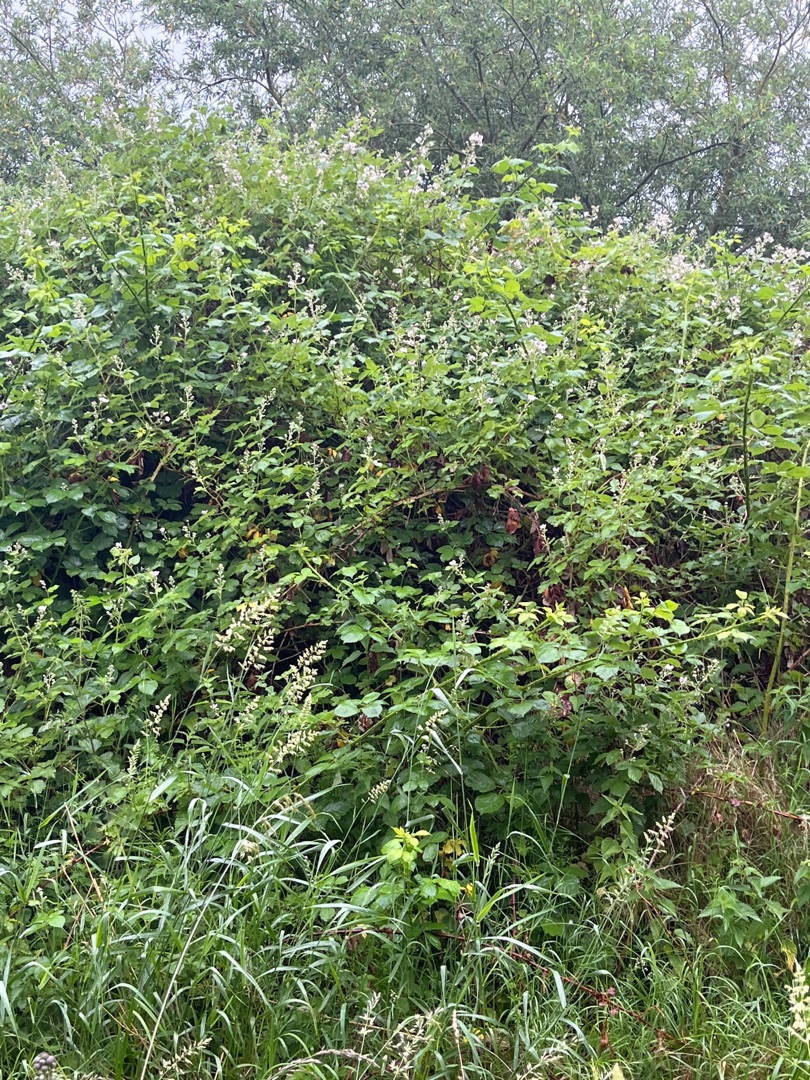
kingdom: Plantae
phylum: Tracheophyta
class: Magnoliopsida
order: Rosales
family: Rosaceae
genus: Rubus
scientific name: Rubus
